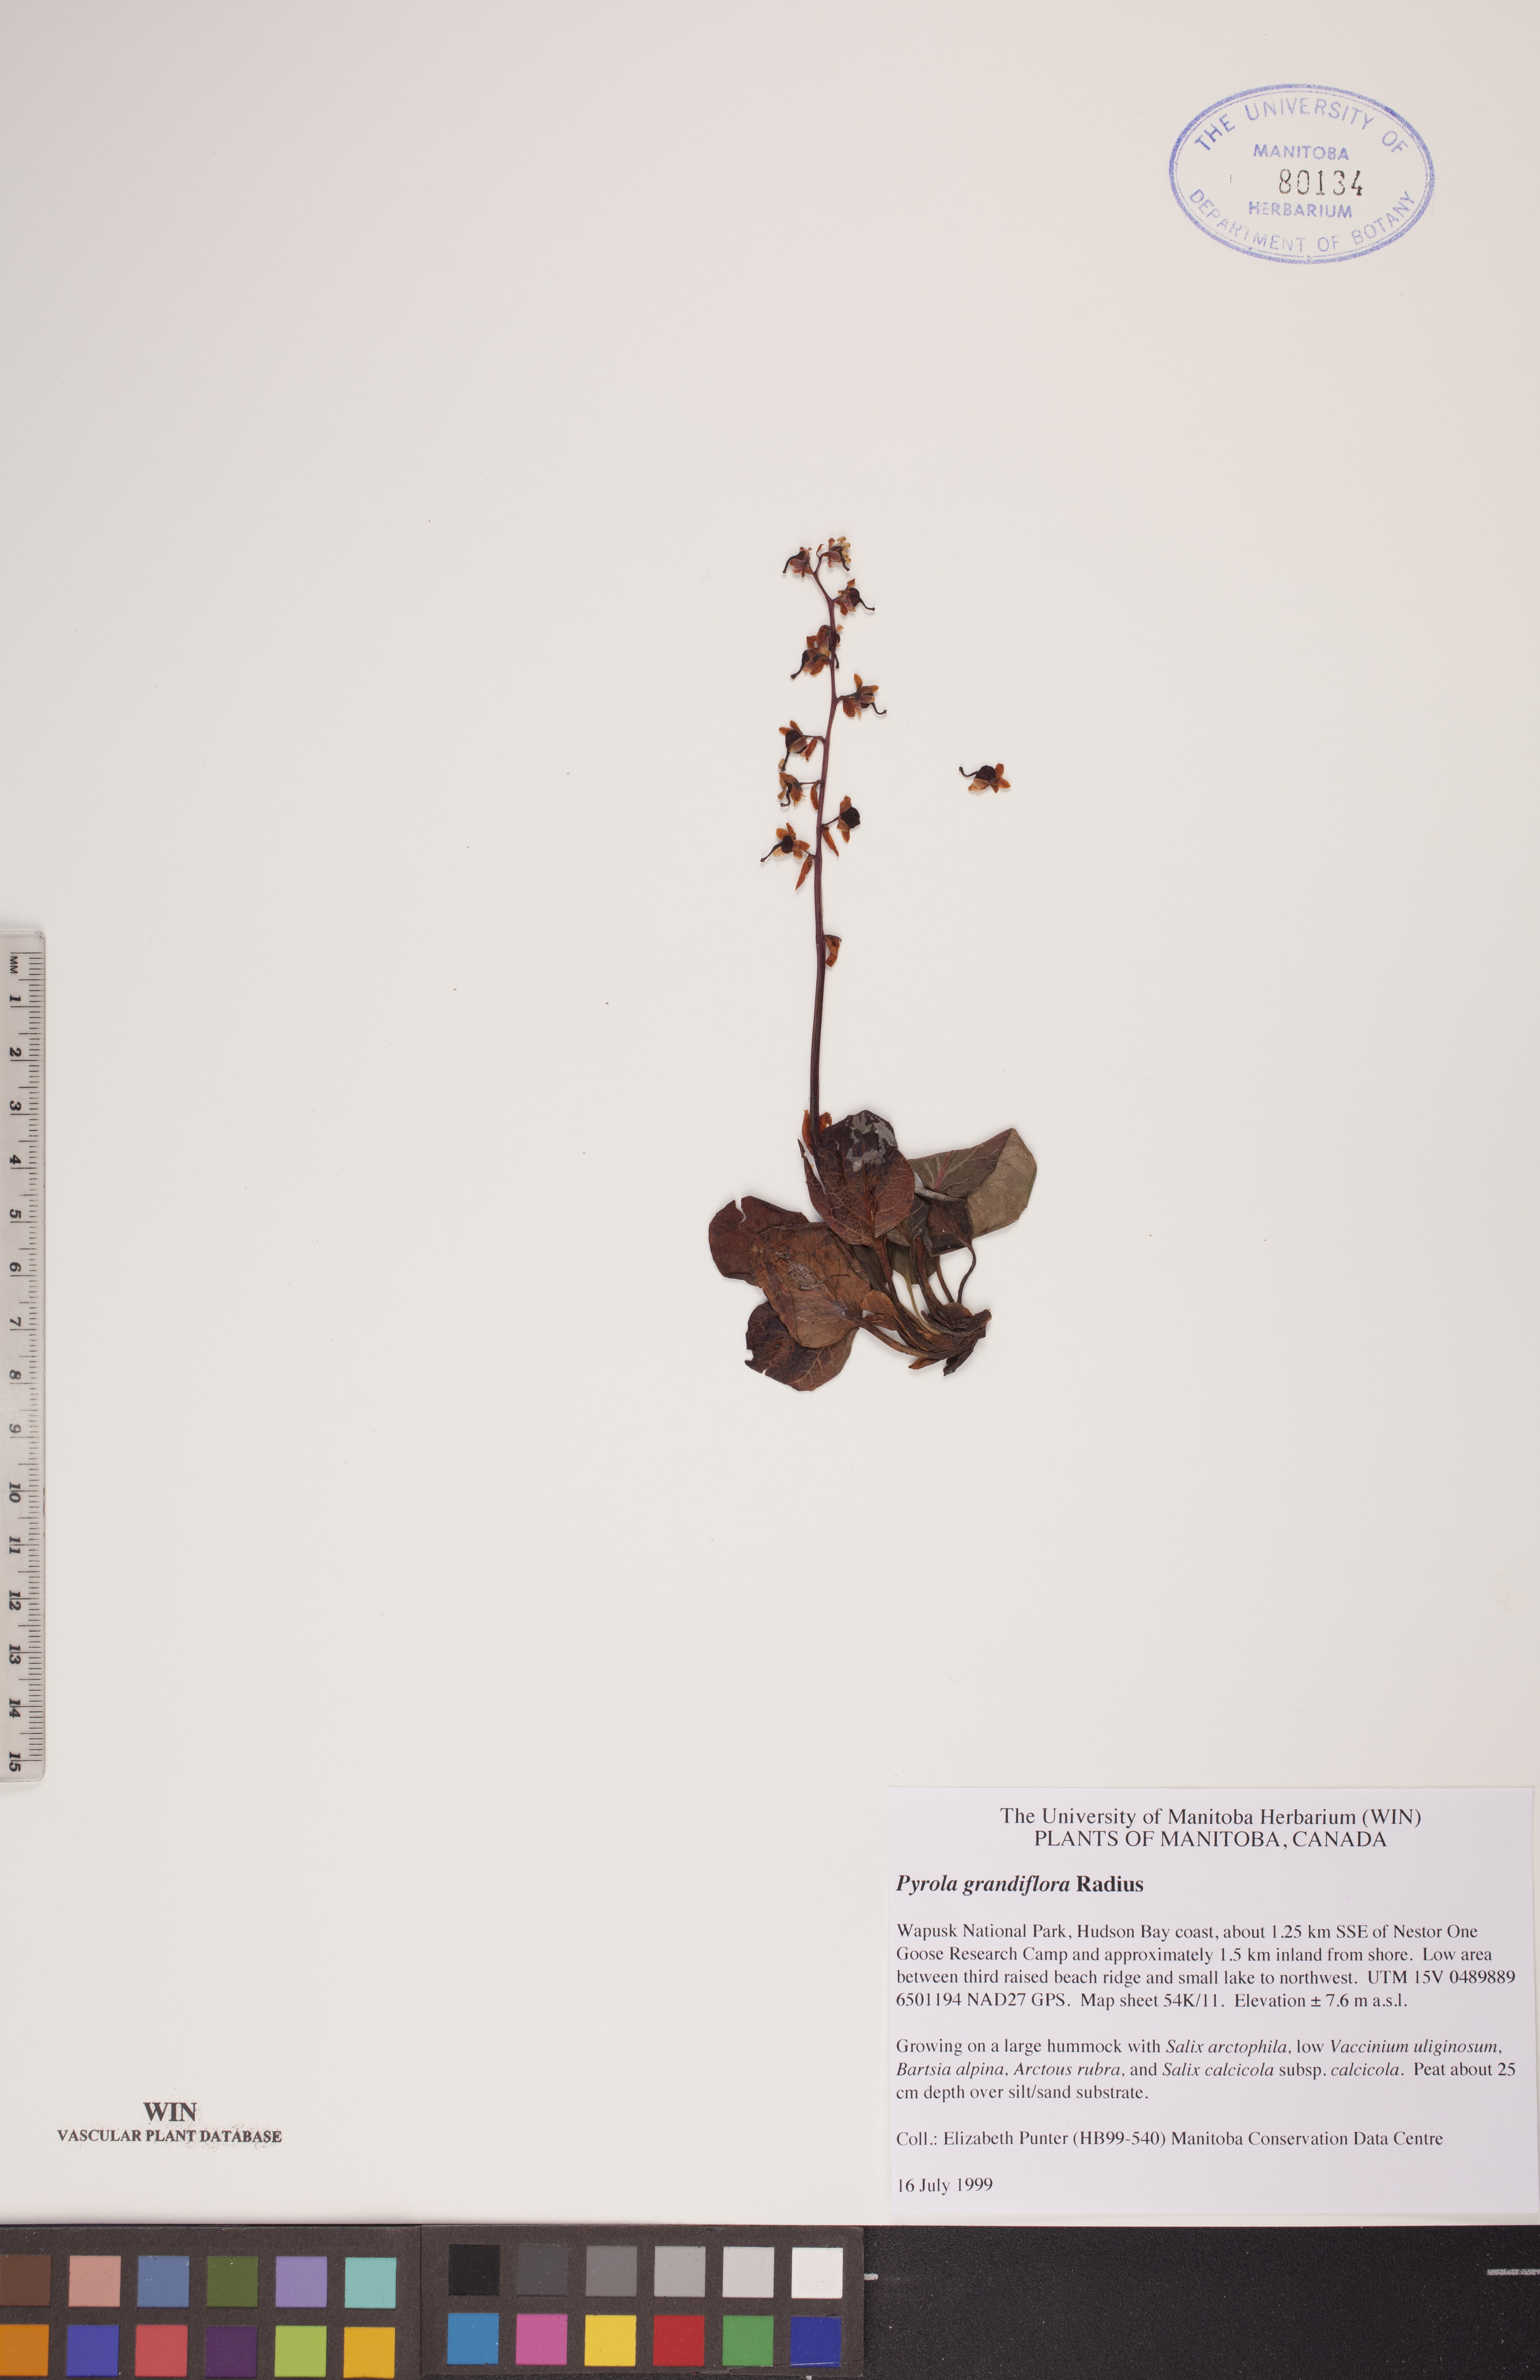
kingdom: Plantae
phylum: Tracheophyta
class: Magnoliopsida
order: Ericales
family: Ericaceae
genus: Pyrola
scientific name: Pyrola grandiflora
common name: Arctic pyrola
